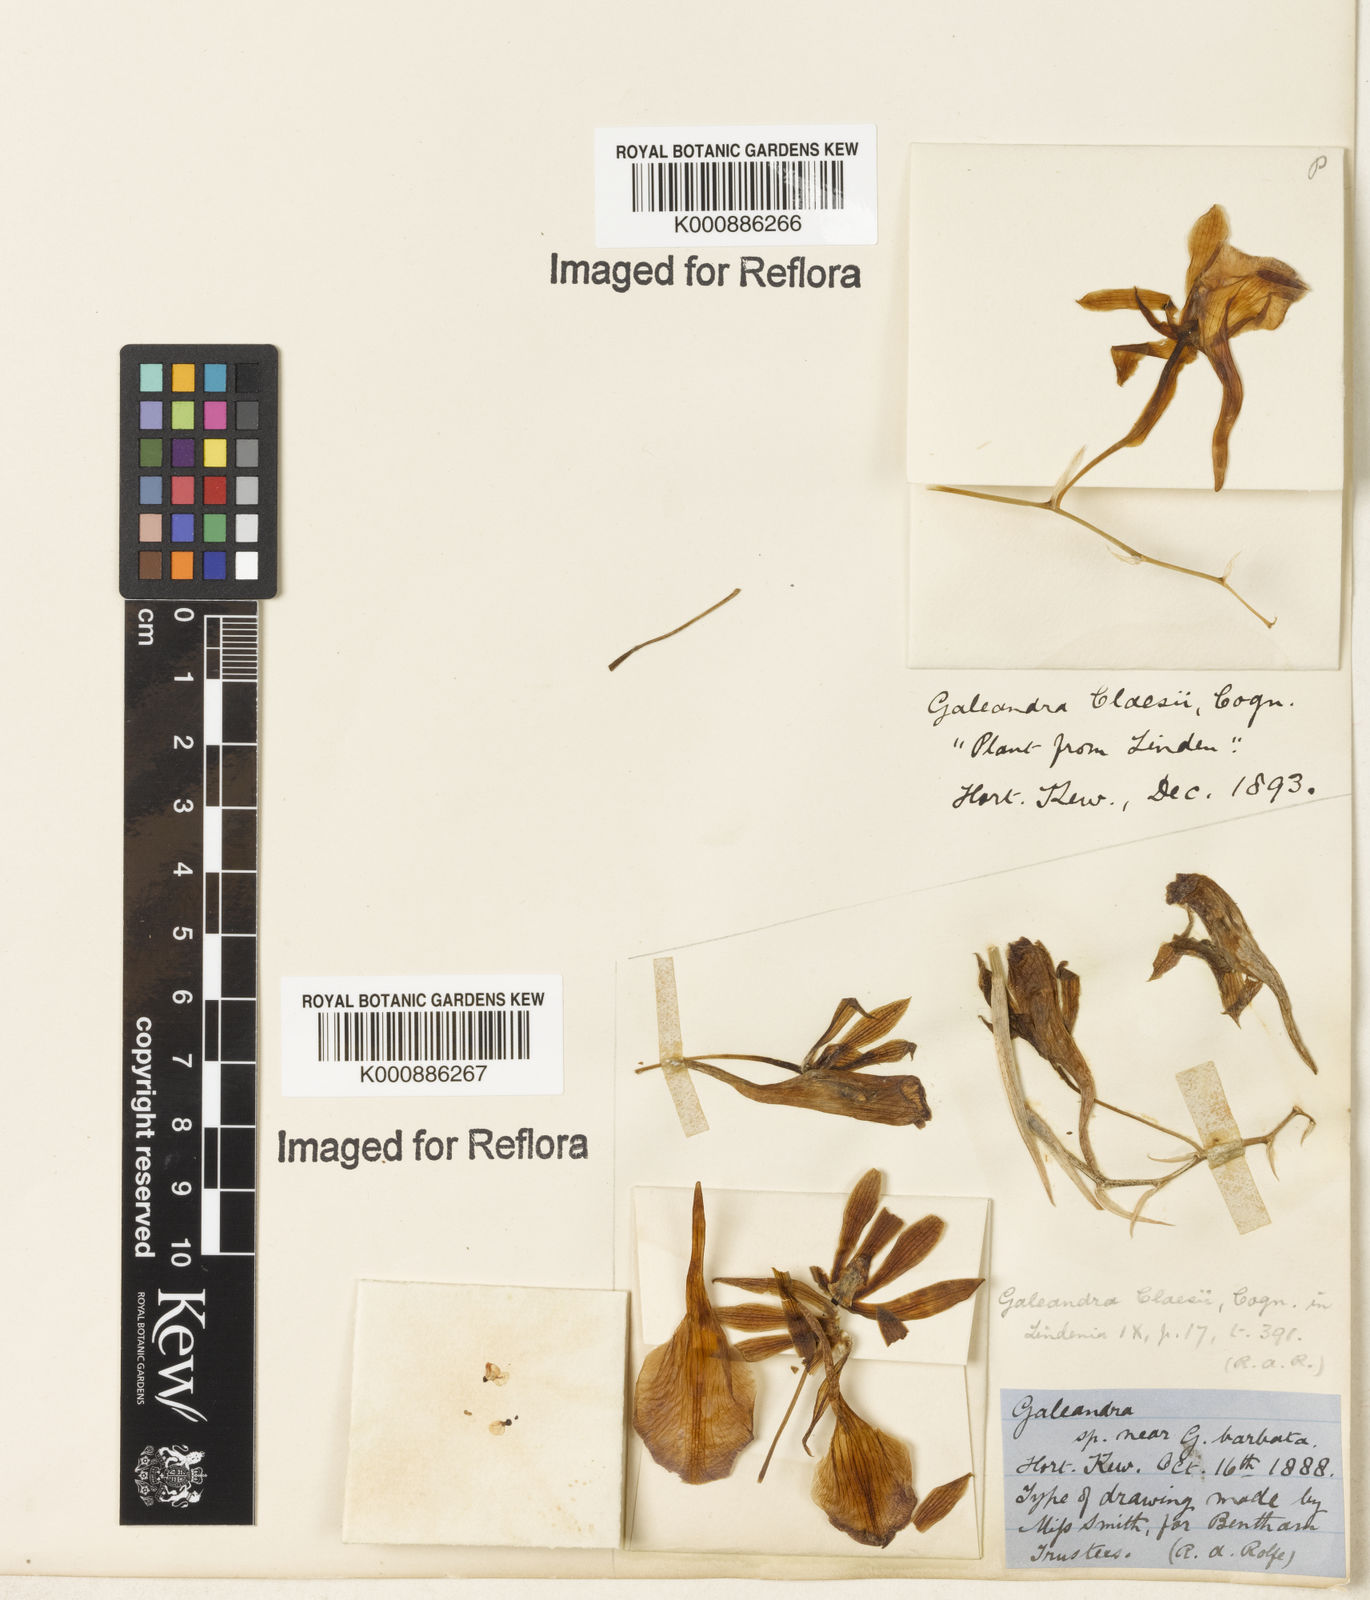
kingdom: Plantae
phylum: Tracheophyta
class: Liliopsida
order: Asparagales
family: Orchidaceae
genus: Galeandra
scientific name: Galeandra claesii
